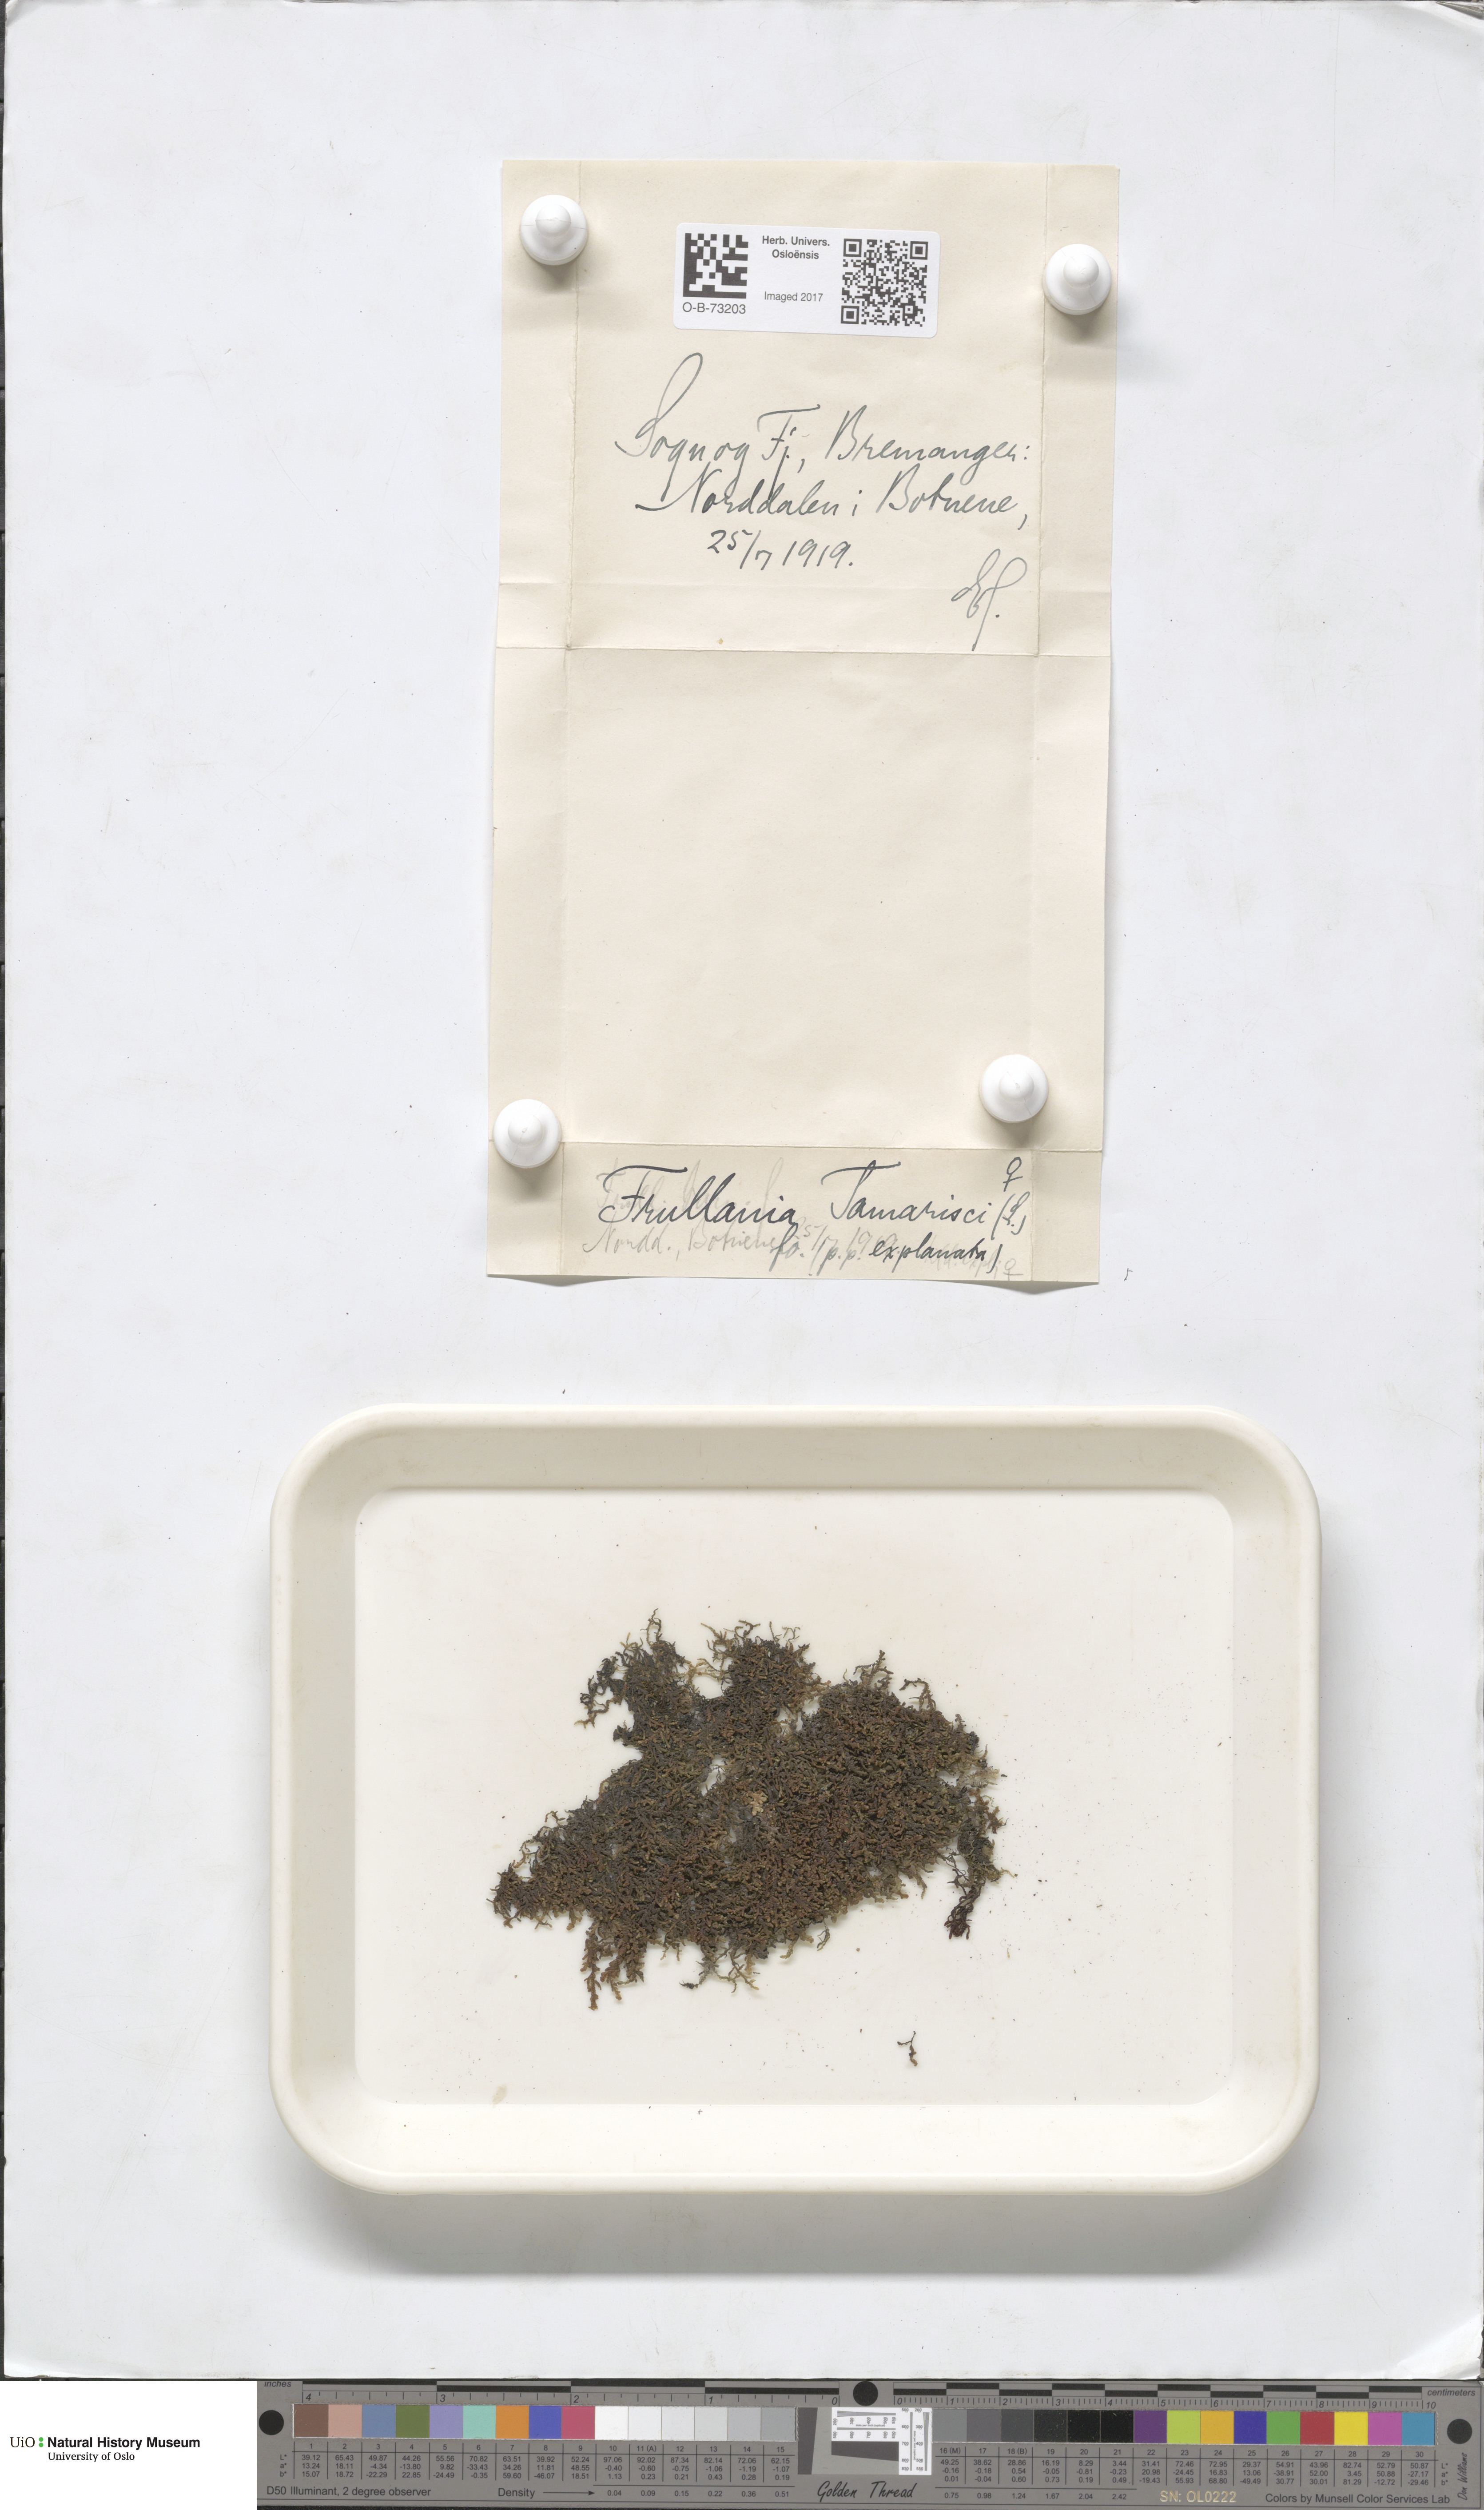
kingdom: Plantae
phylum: Marchantiophyta
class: Jungermanniopsida
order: Porellales
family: Frullaniaceae
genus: Frullania
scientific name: Frullania tamarisci
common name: Tamarisk scalewort
